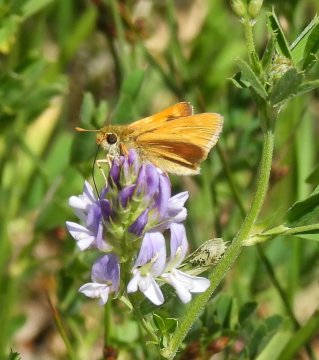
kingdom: Animalia
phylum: Arthropoda
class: Insecta
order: Lepidoptera
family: Hesperiidae
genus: Polites
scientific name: Polites
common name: Long Dash Skipper
